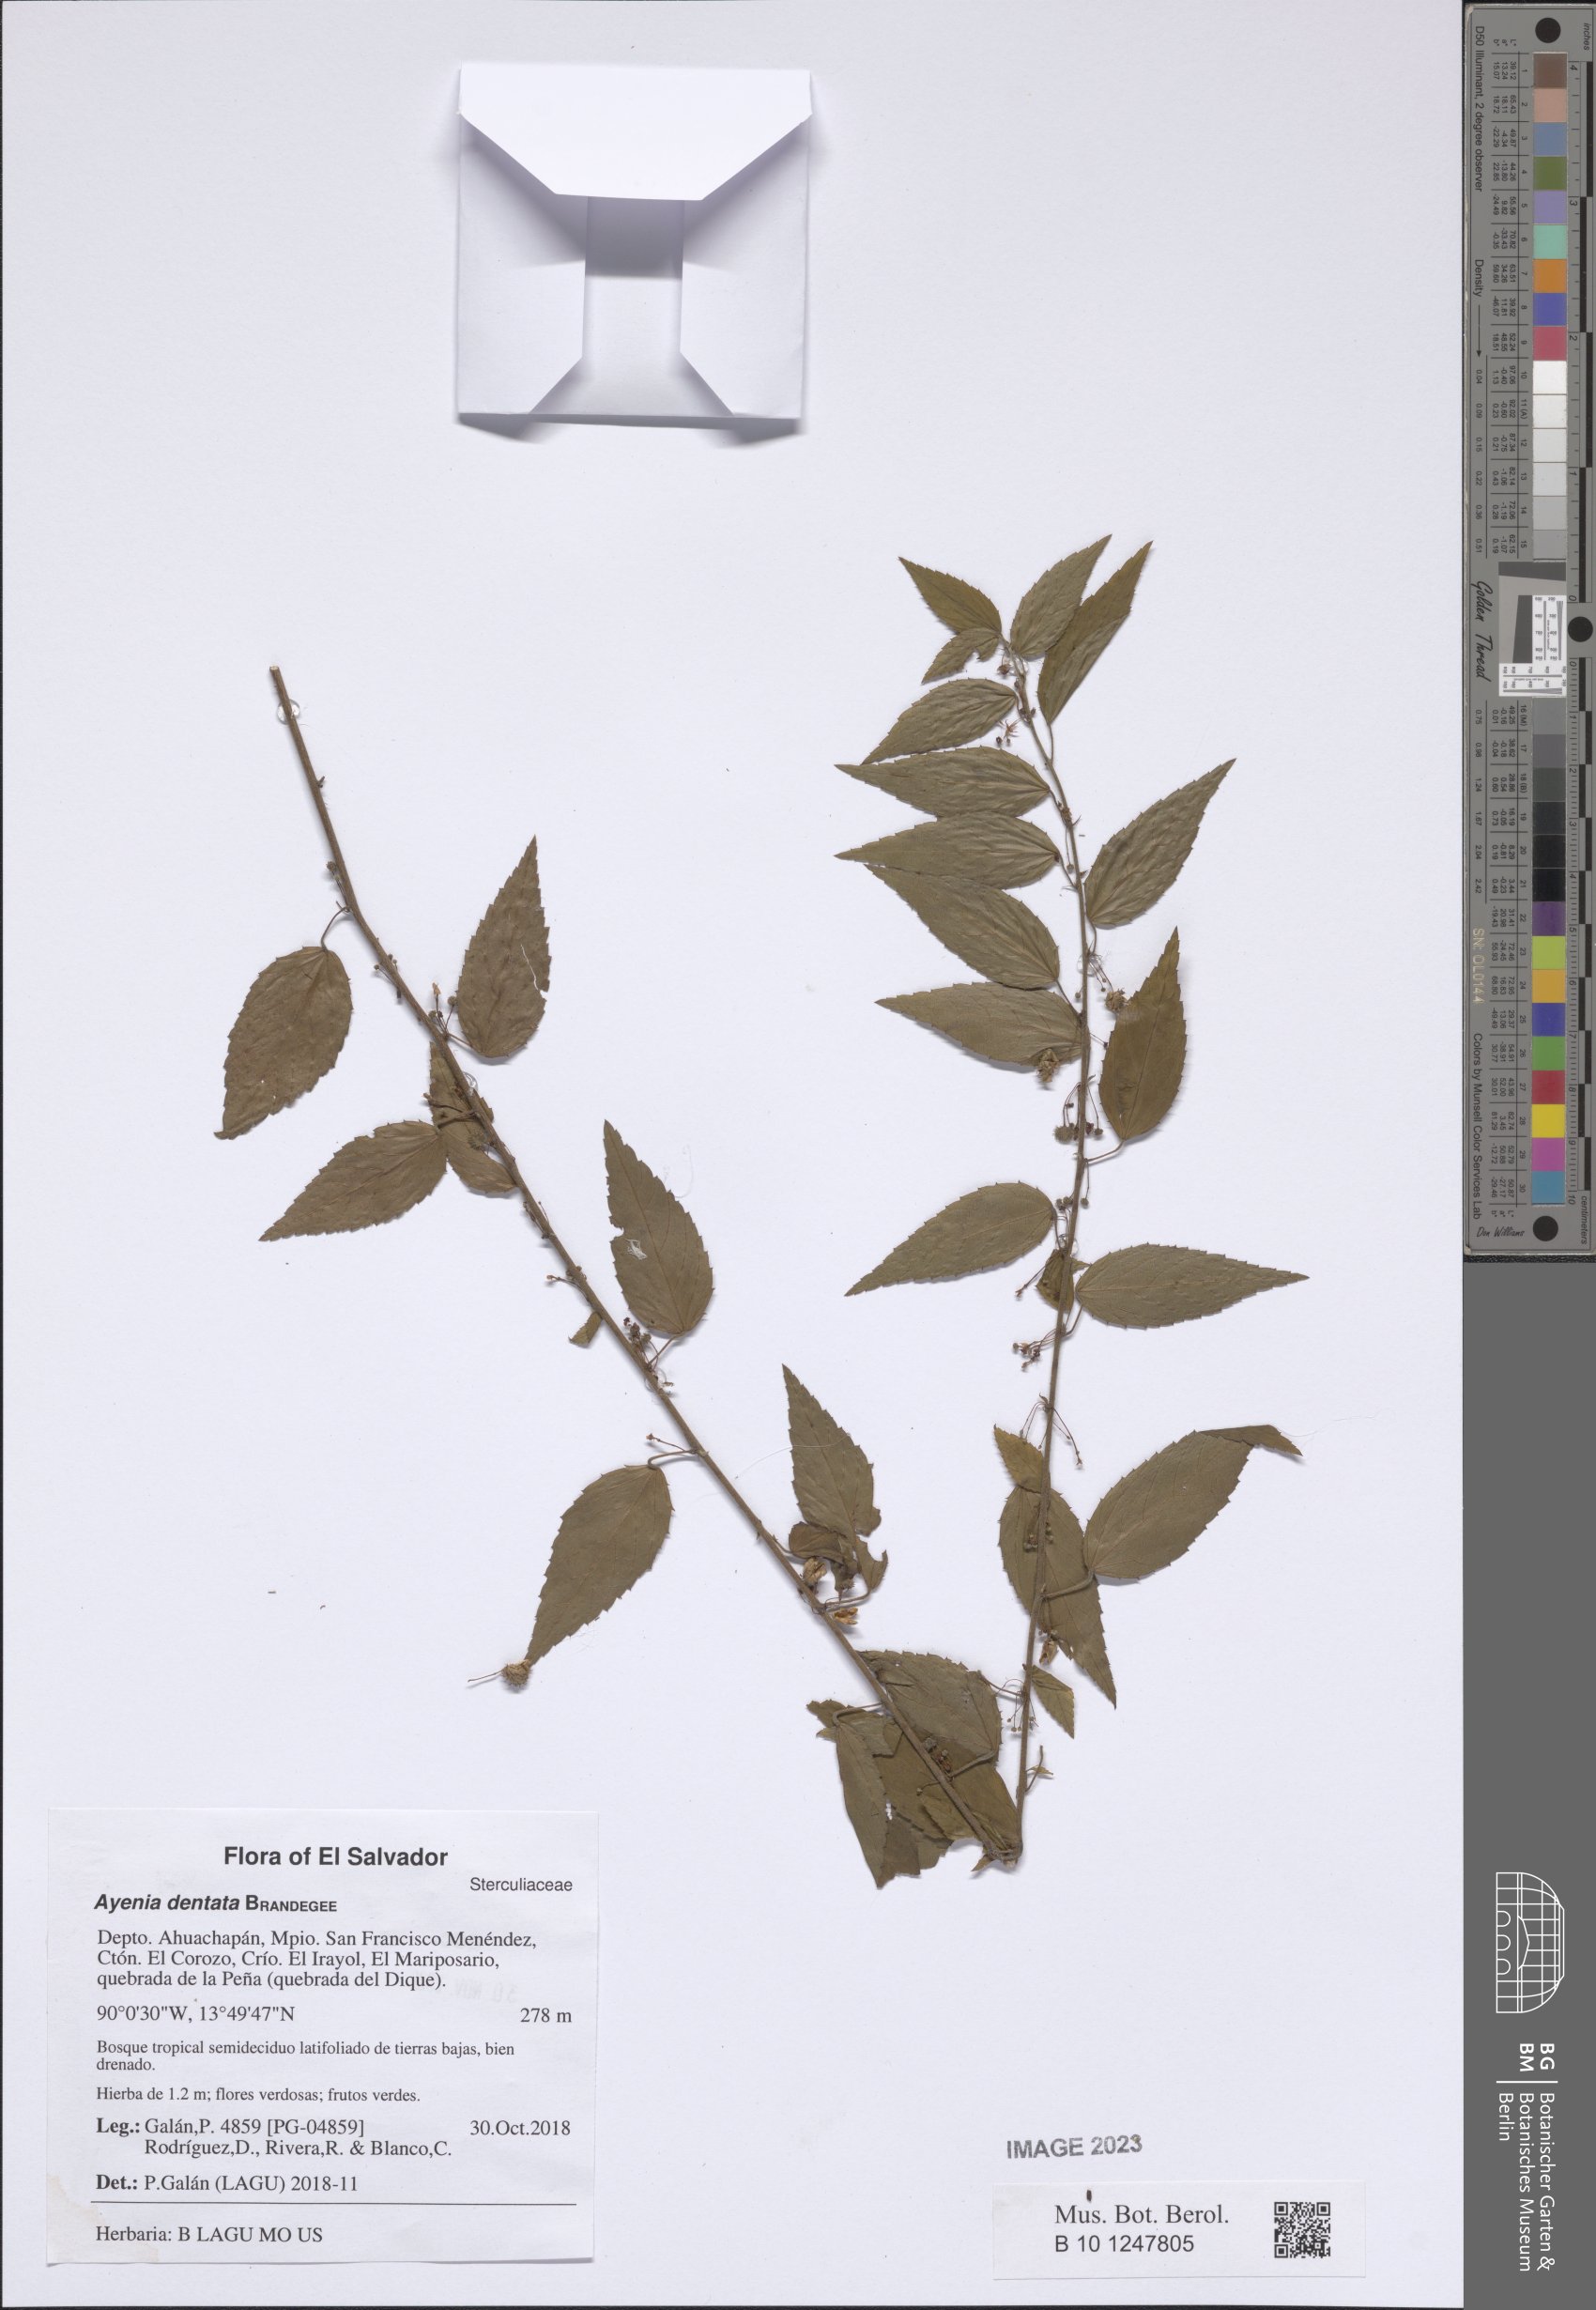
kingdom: Plantae
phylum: Tracheophyta
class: Magnoliopsida
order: Malvales
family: Malvaceae
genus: Ayenia
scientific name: Ayenia dentata
